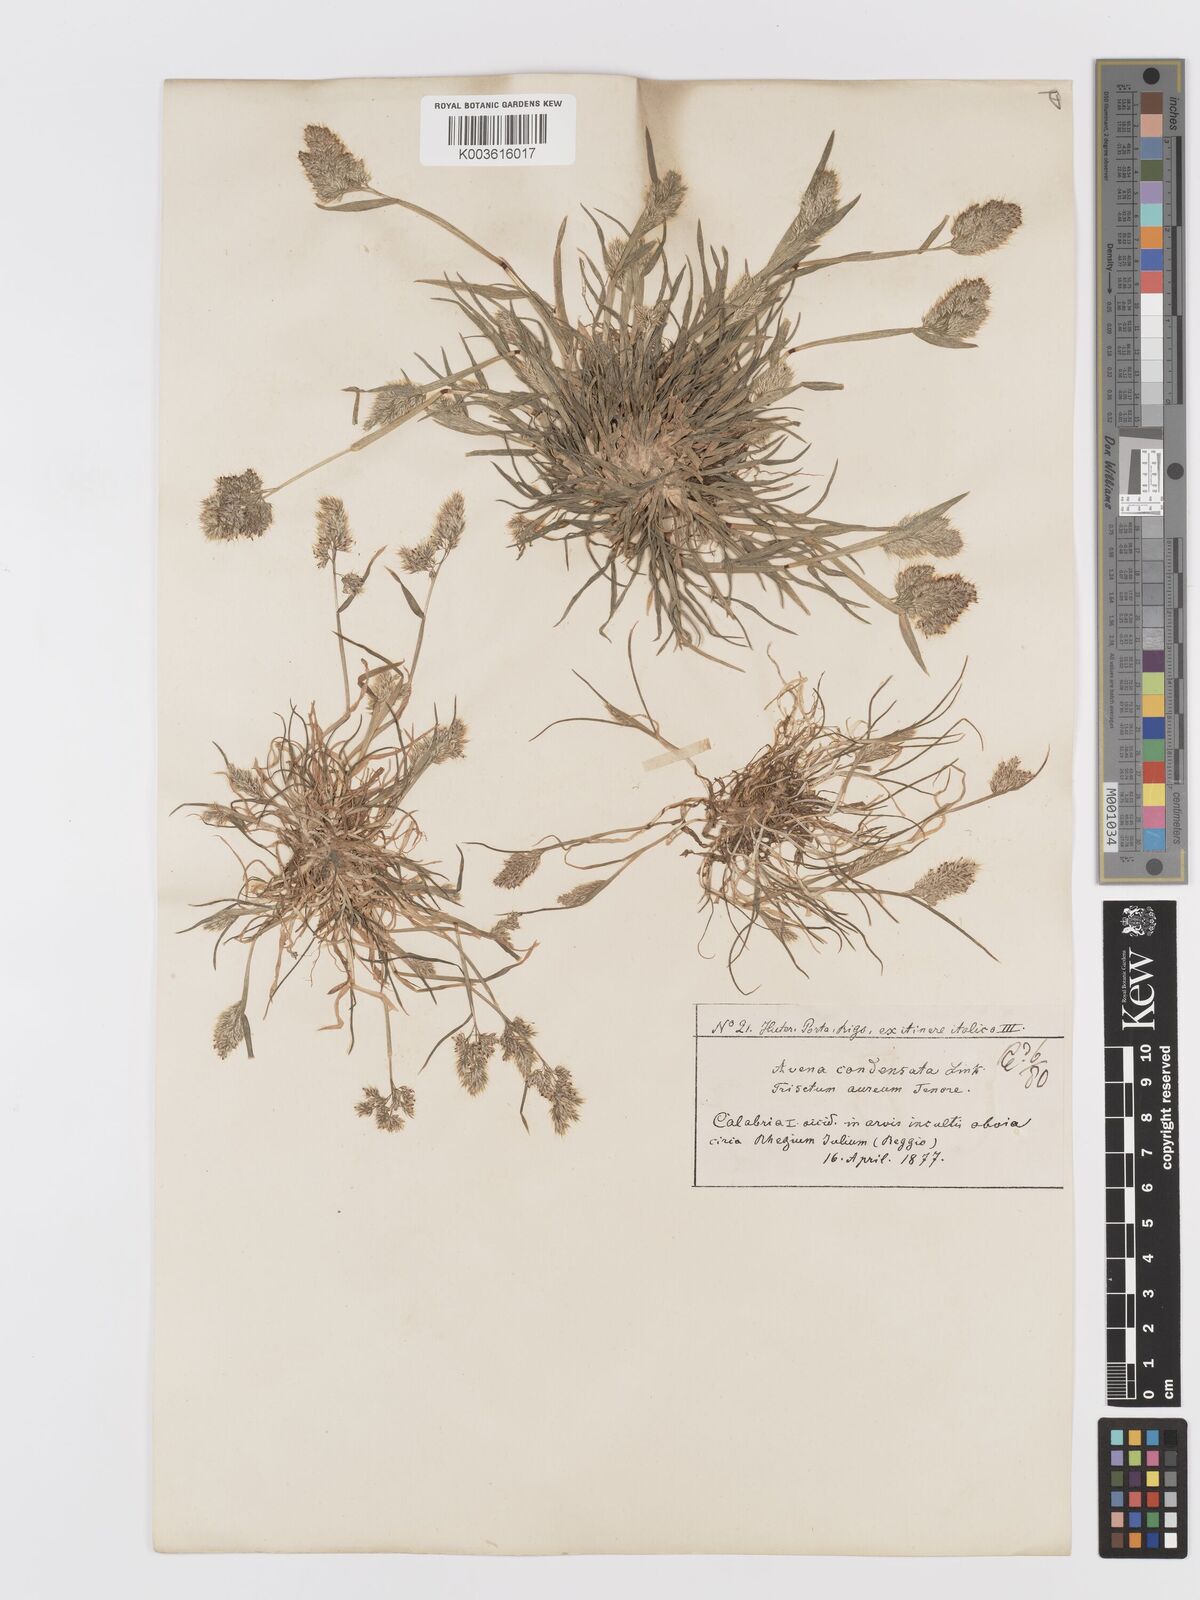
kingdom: Plantae
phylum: Tracheophyta
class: Liliopsida
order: Poales
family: Poaceae
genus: Trisetaria
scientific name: Trisetaria aurea
